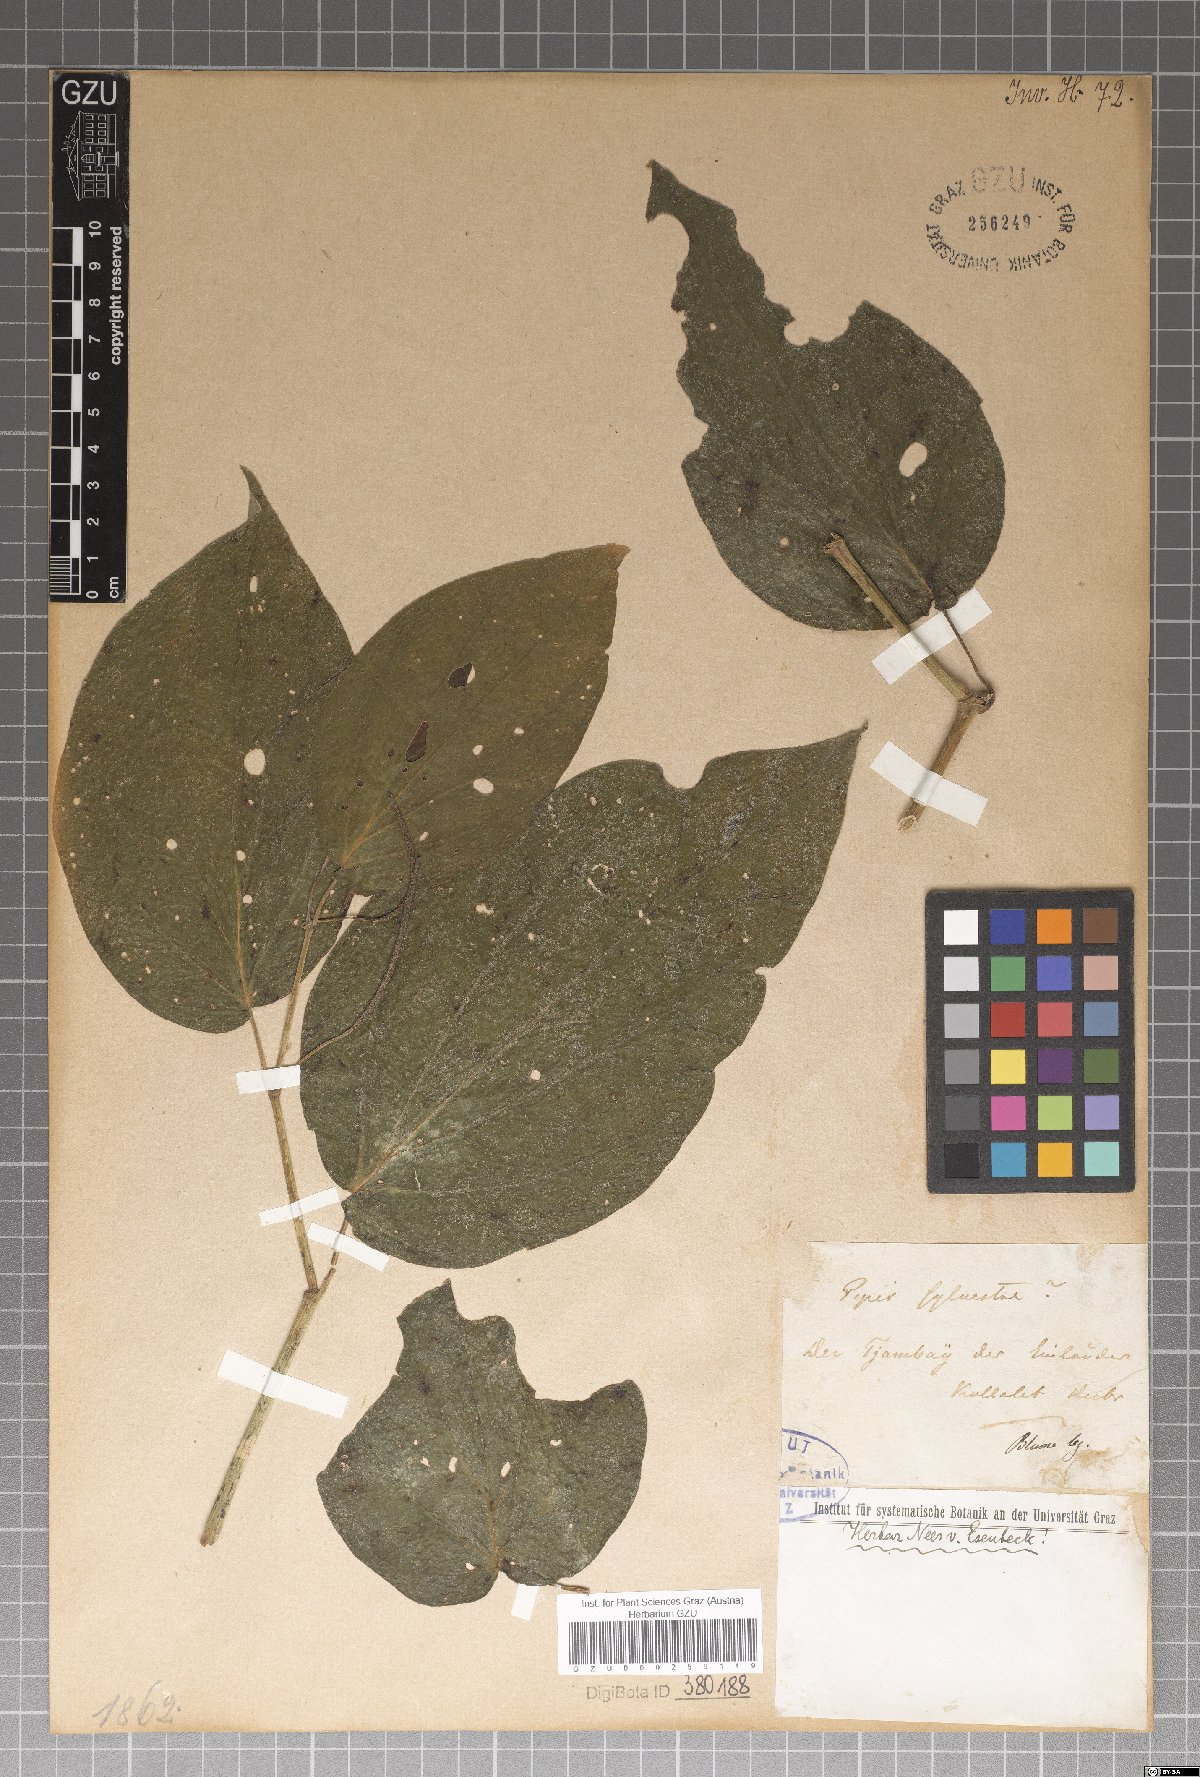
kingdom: Plantae
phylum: Tracheophyta
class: Magnoliopsida
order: Piperales
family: Piperaceae
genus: Piper
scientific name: Piper fallax
